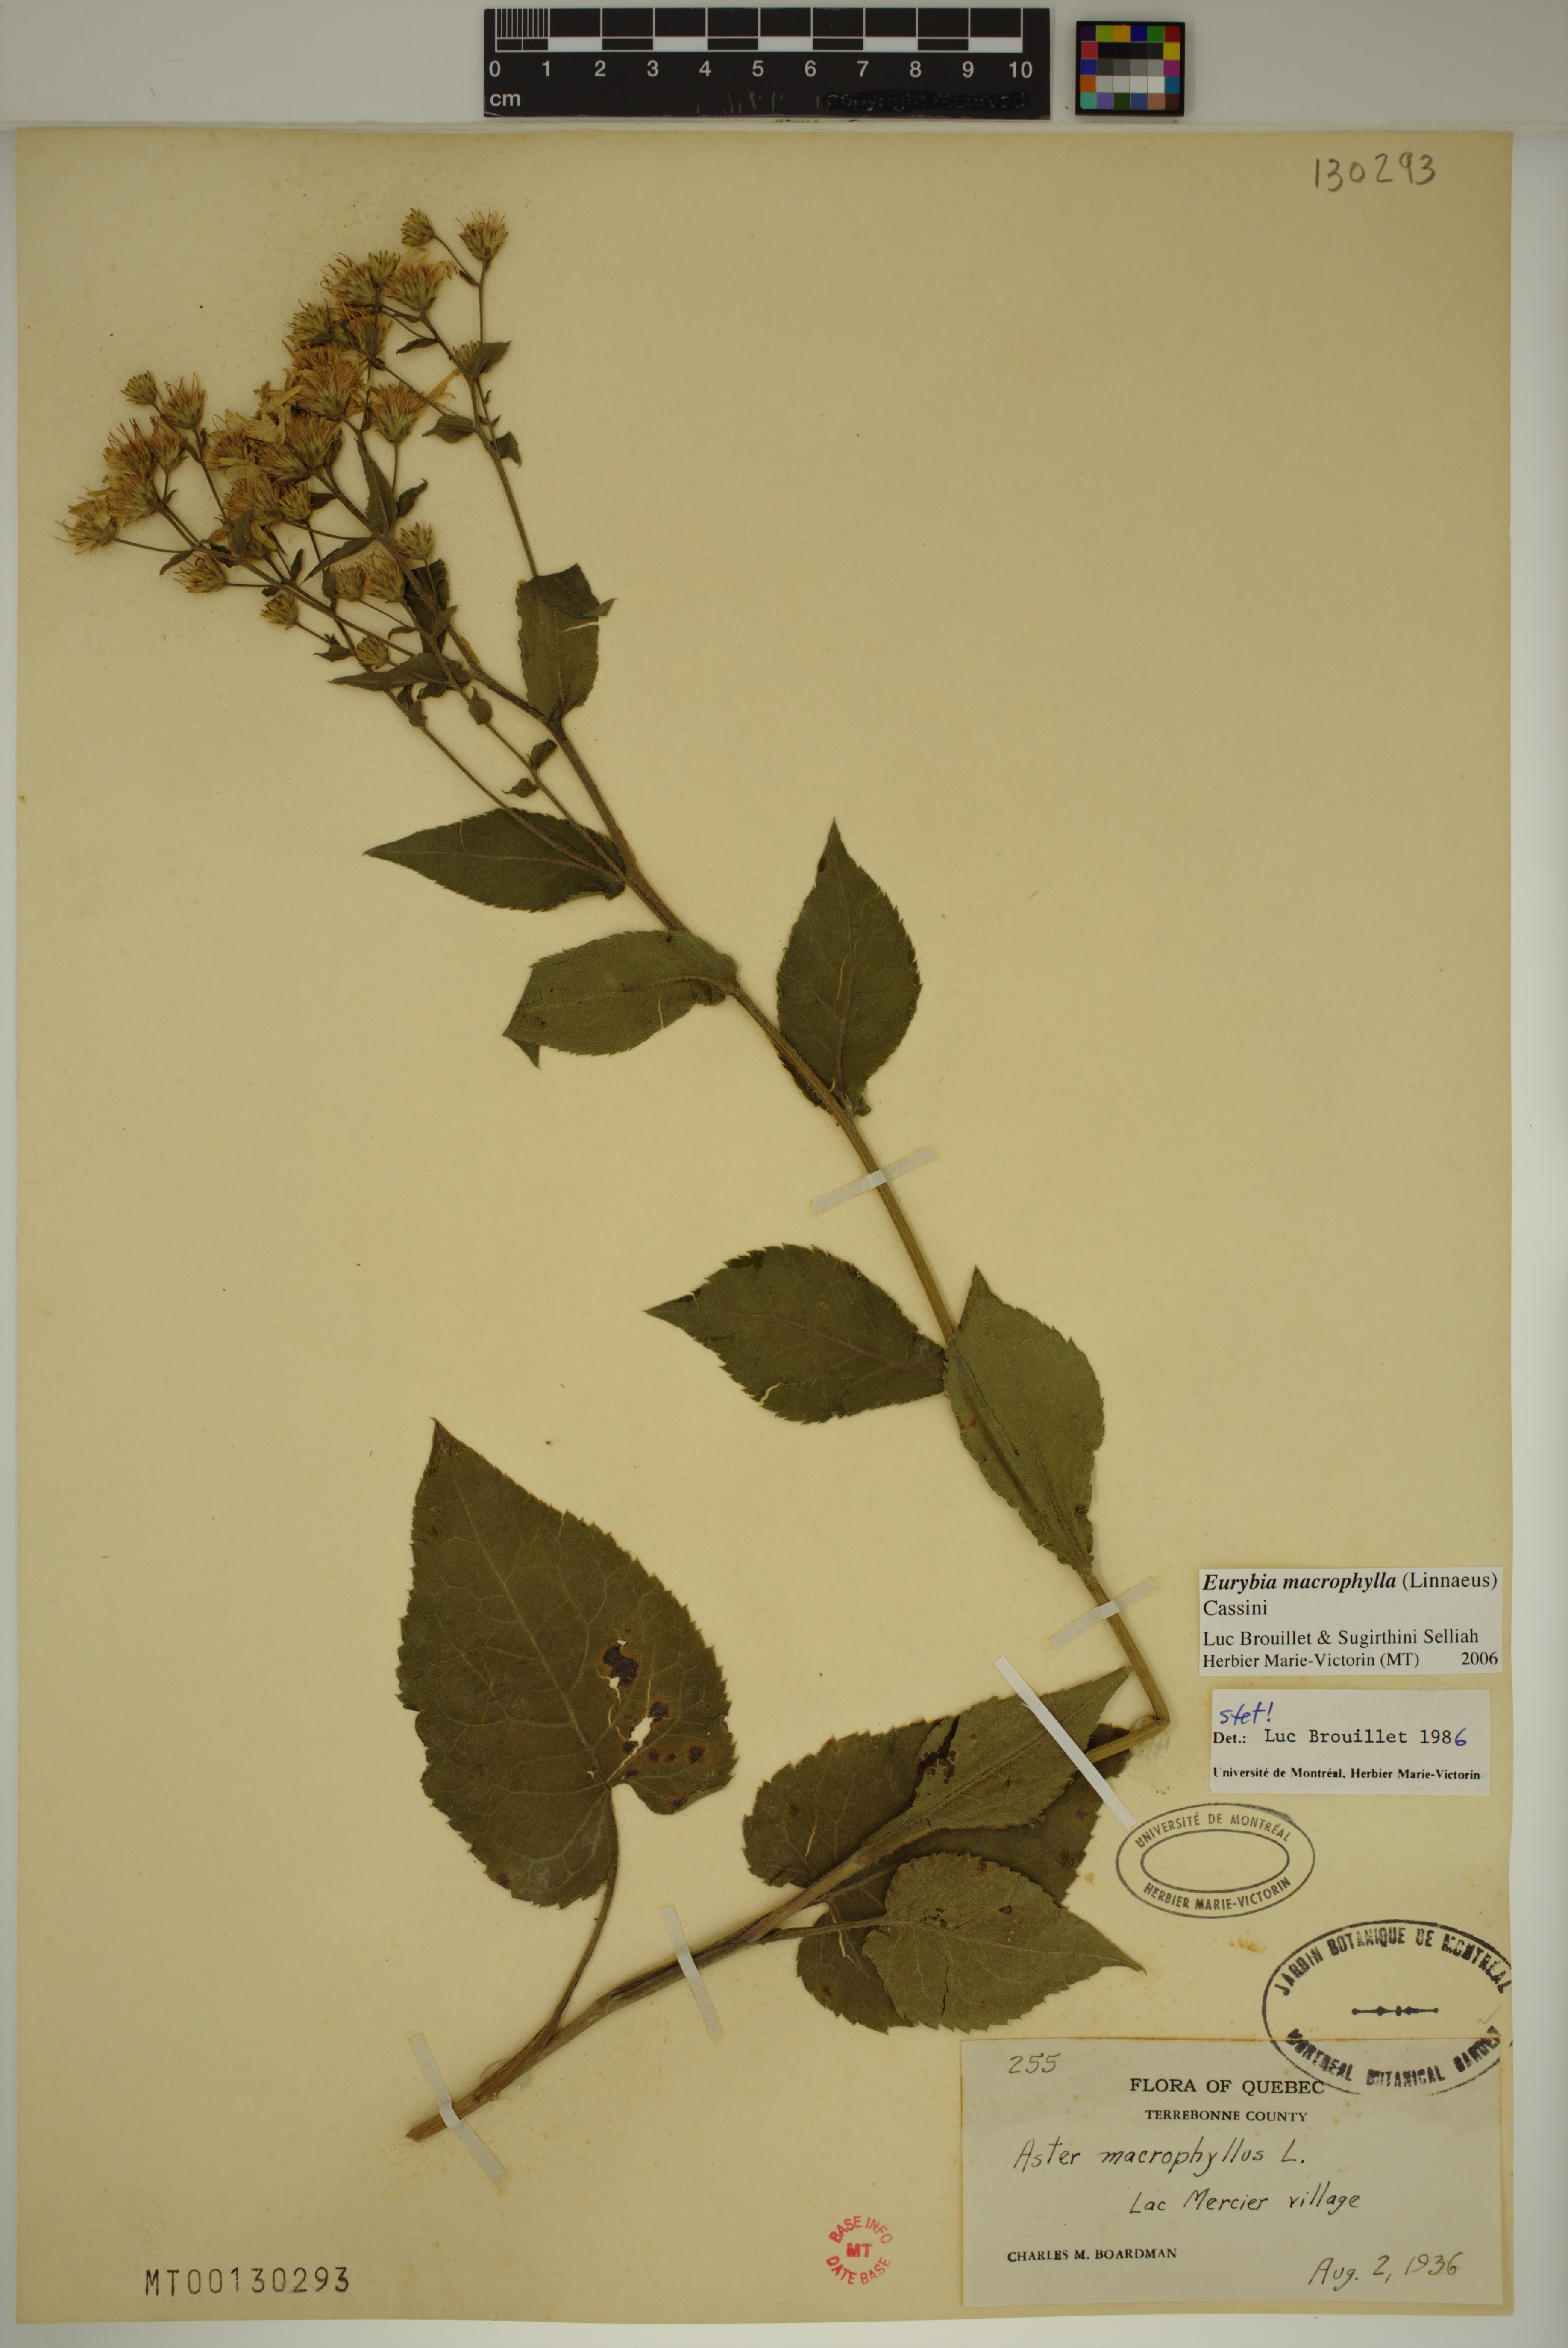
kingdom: Plantae
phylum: Tracheophyta
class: Magnoliopsida
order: Asterales
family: Asteraceae
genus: Eurybia
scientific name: Eurybia macrophylla
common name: Big-leaved aster
